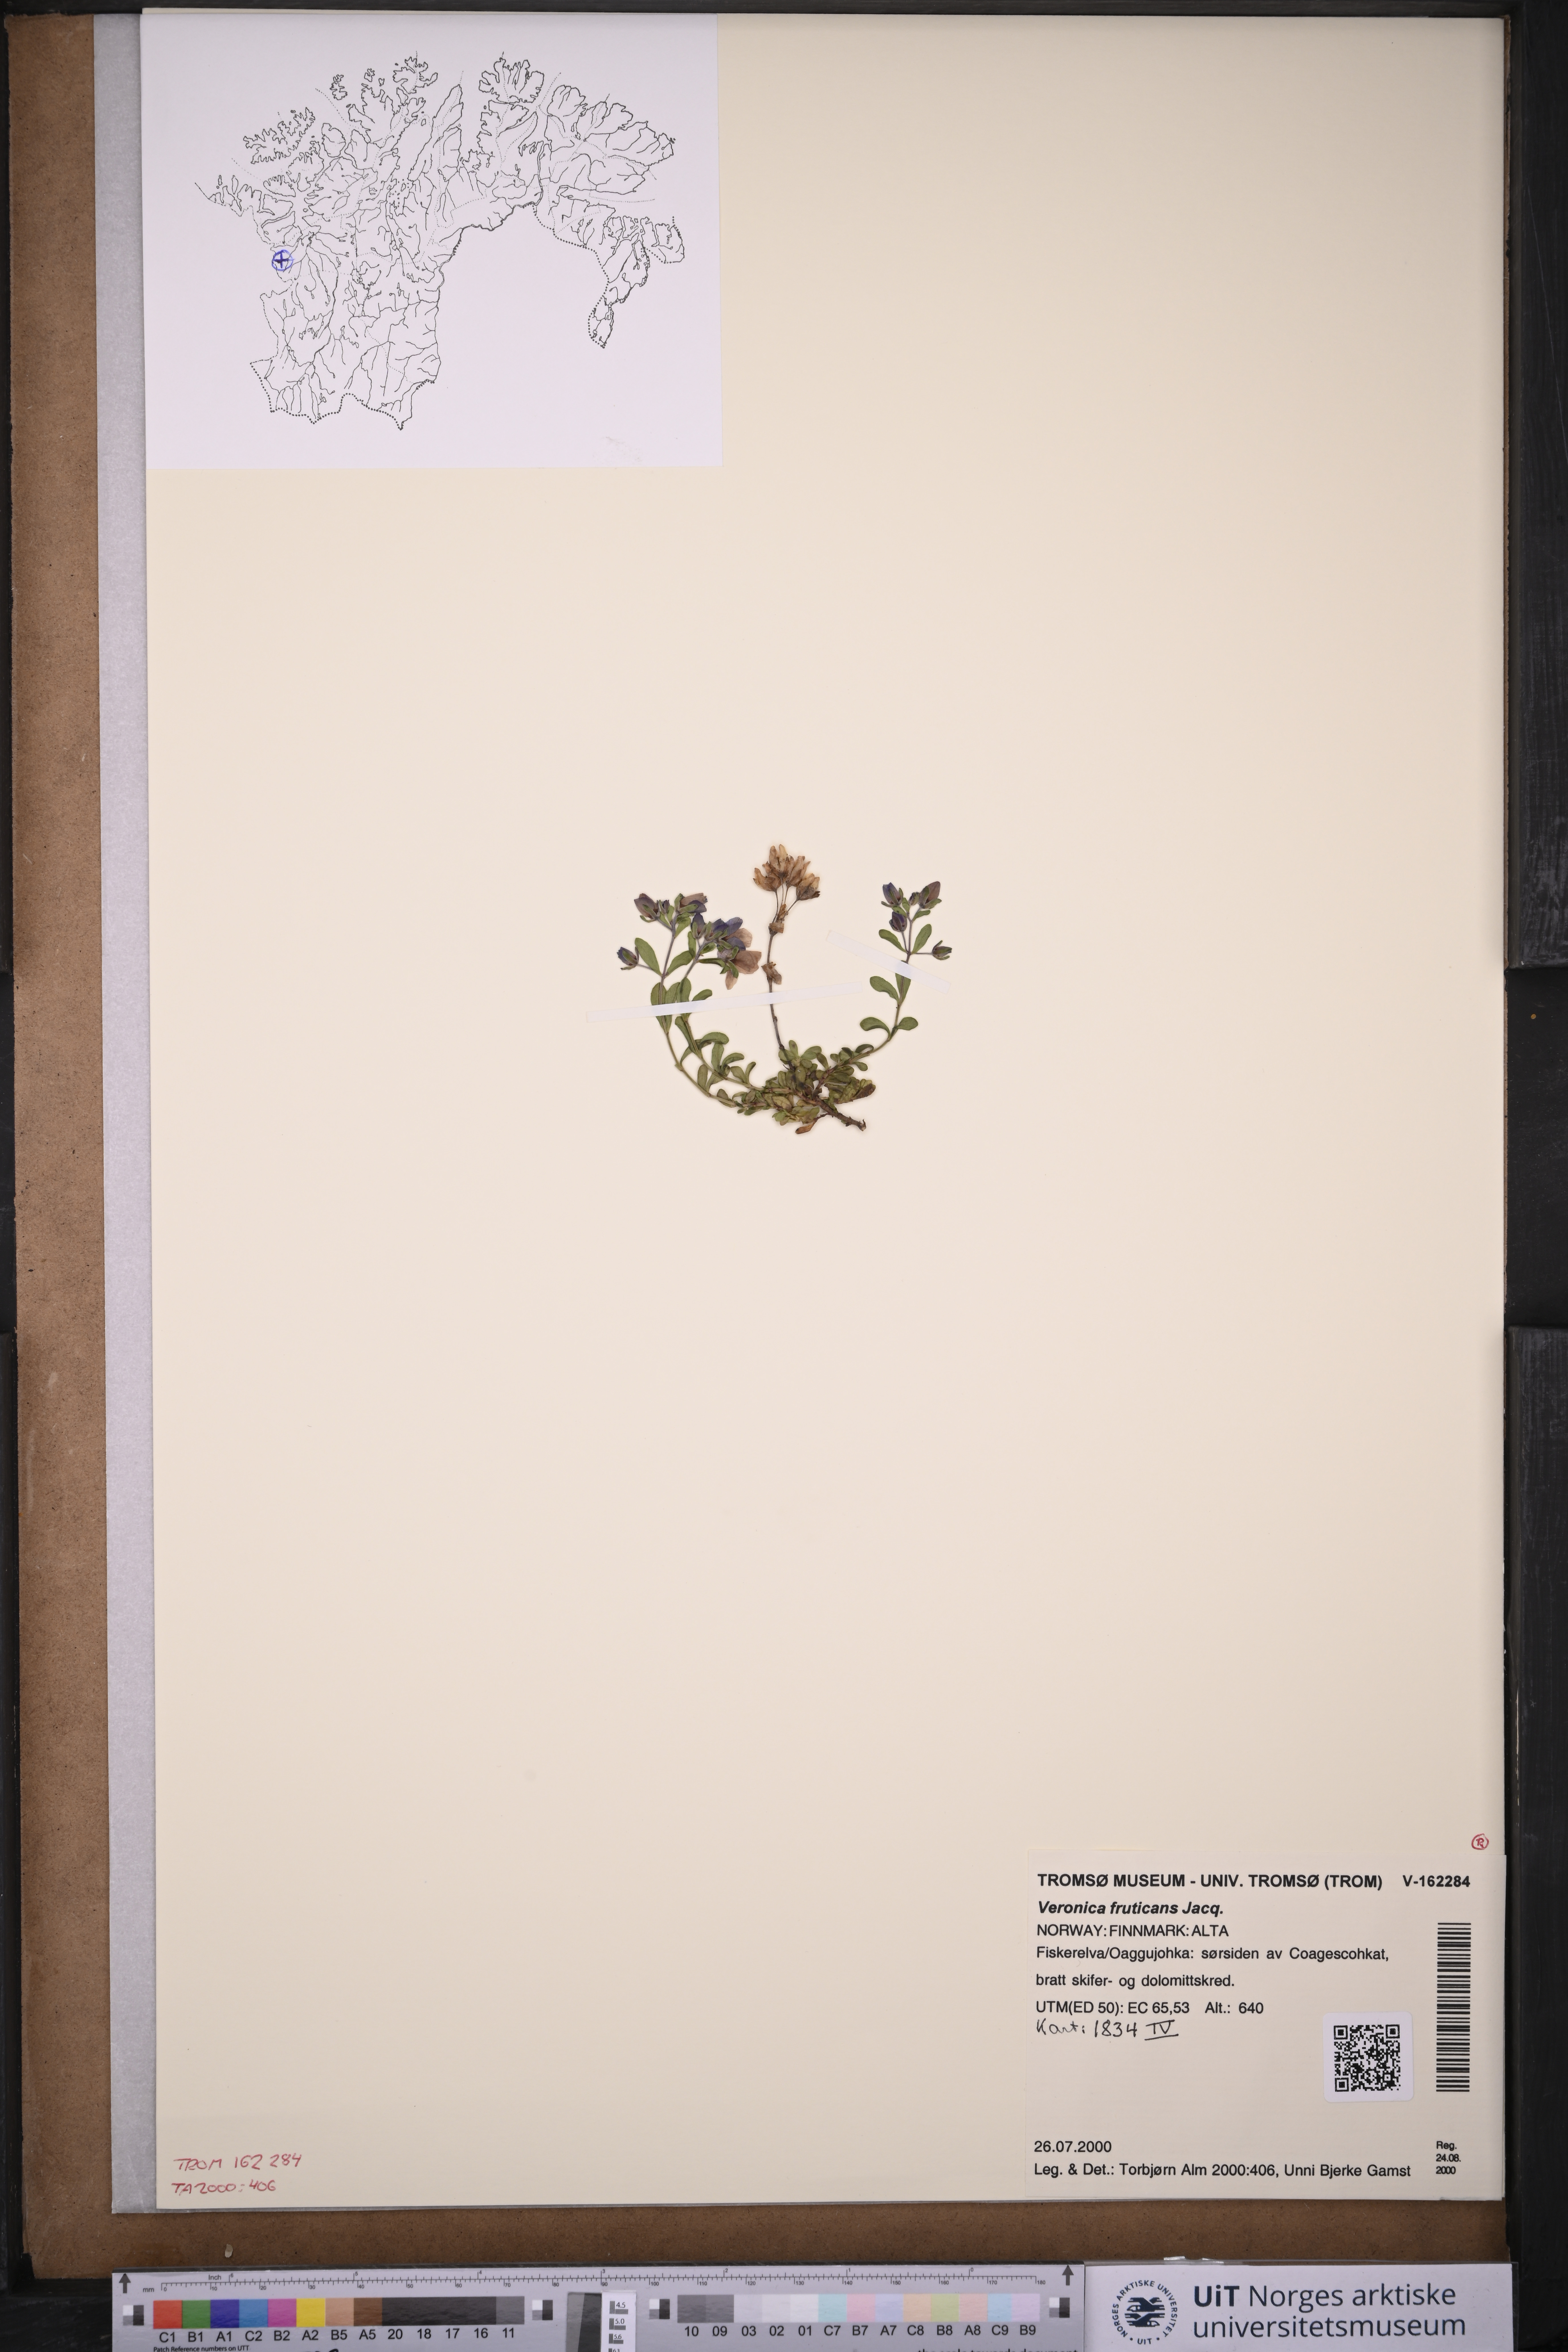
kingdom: Plantae
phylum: Tracheophyta
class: Magnoliopsida
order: Lamiales
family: Plantaginaceae
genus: Veronica
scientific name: Veronica fruticans
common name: Rock speedwell
